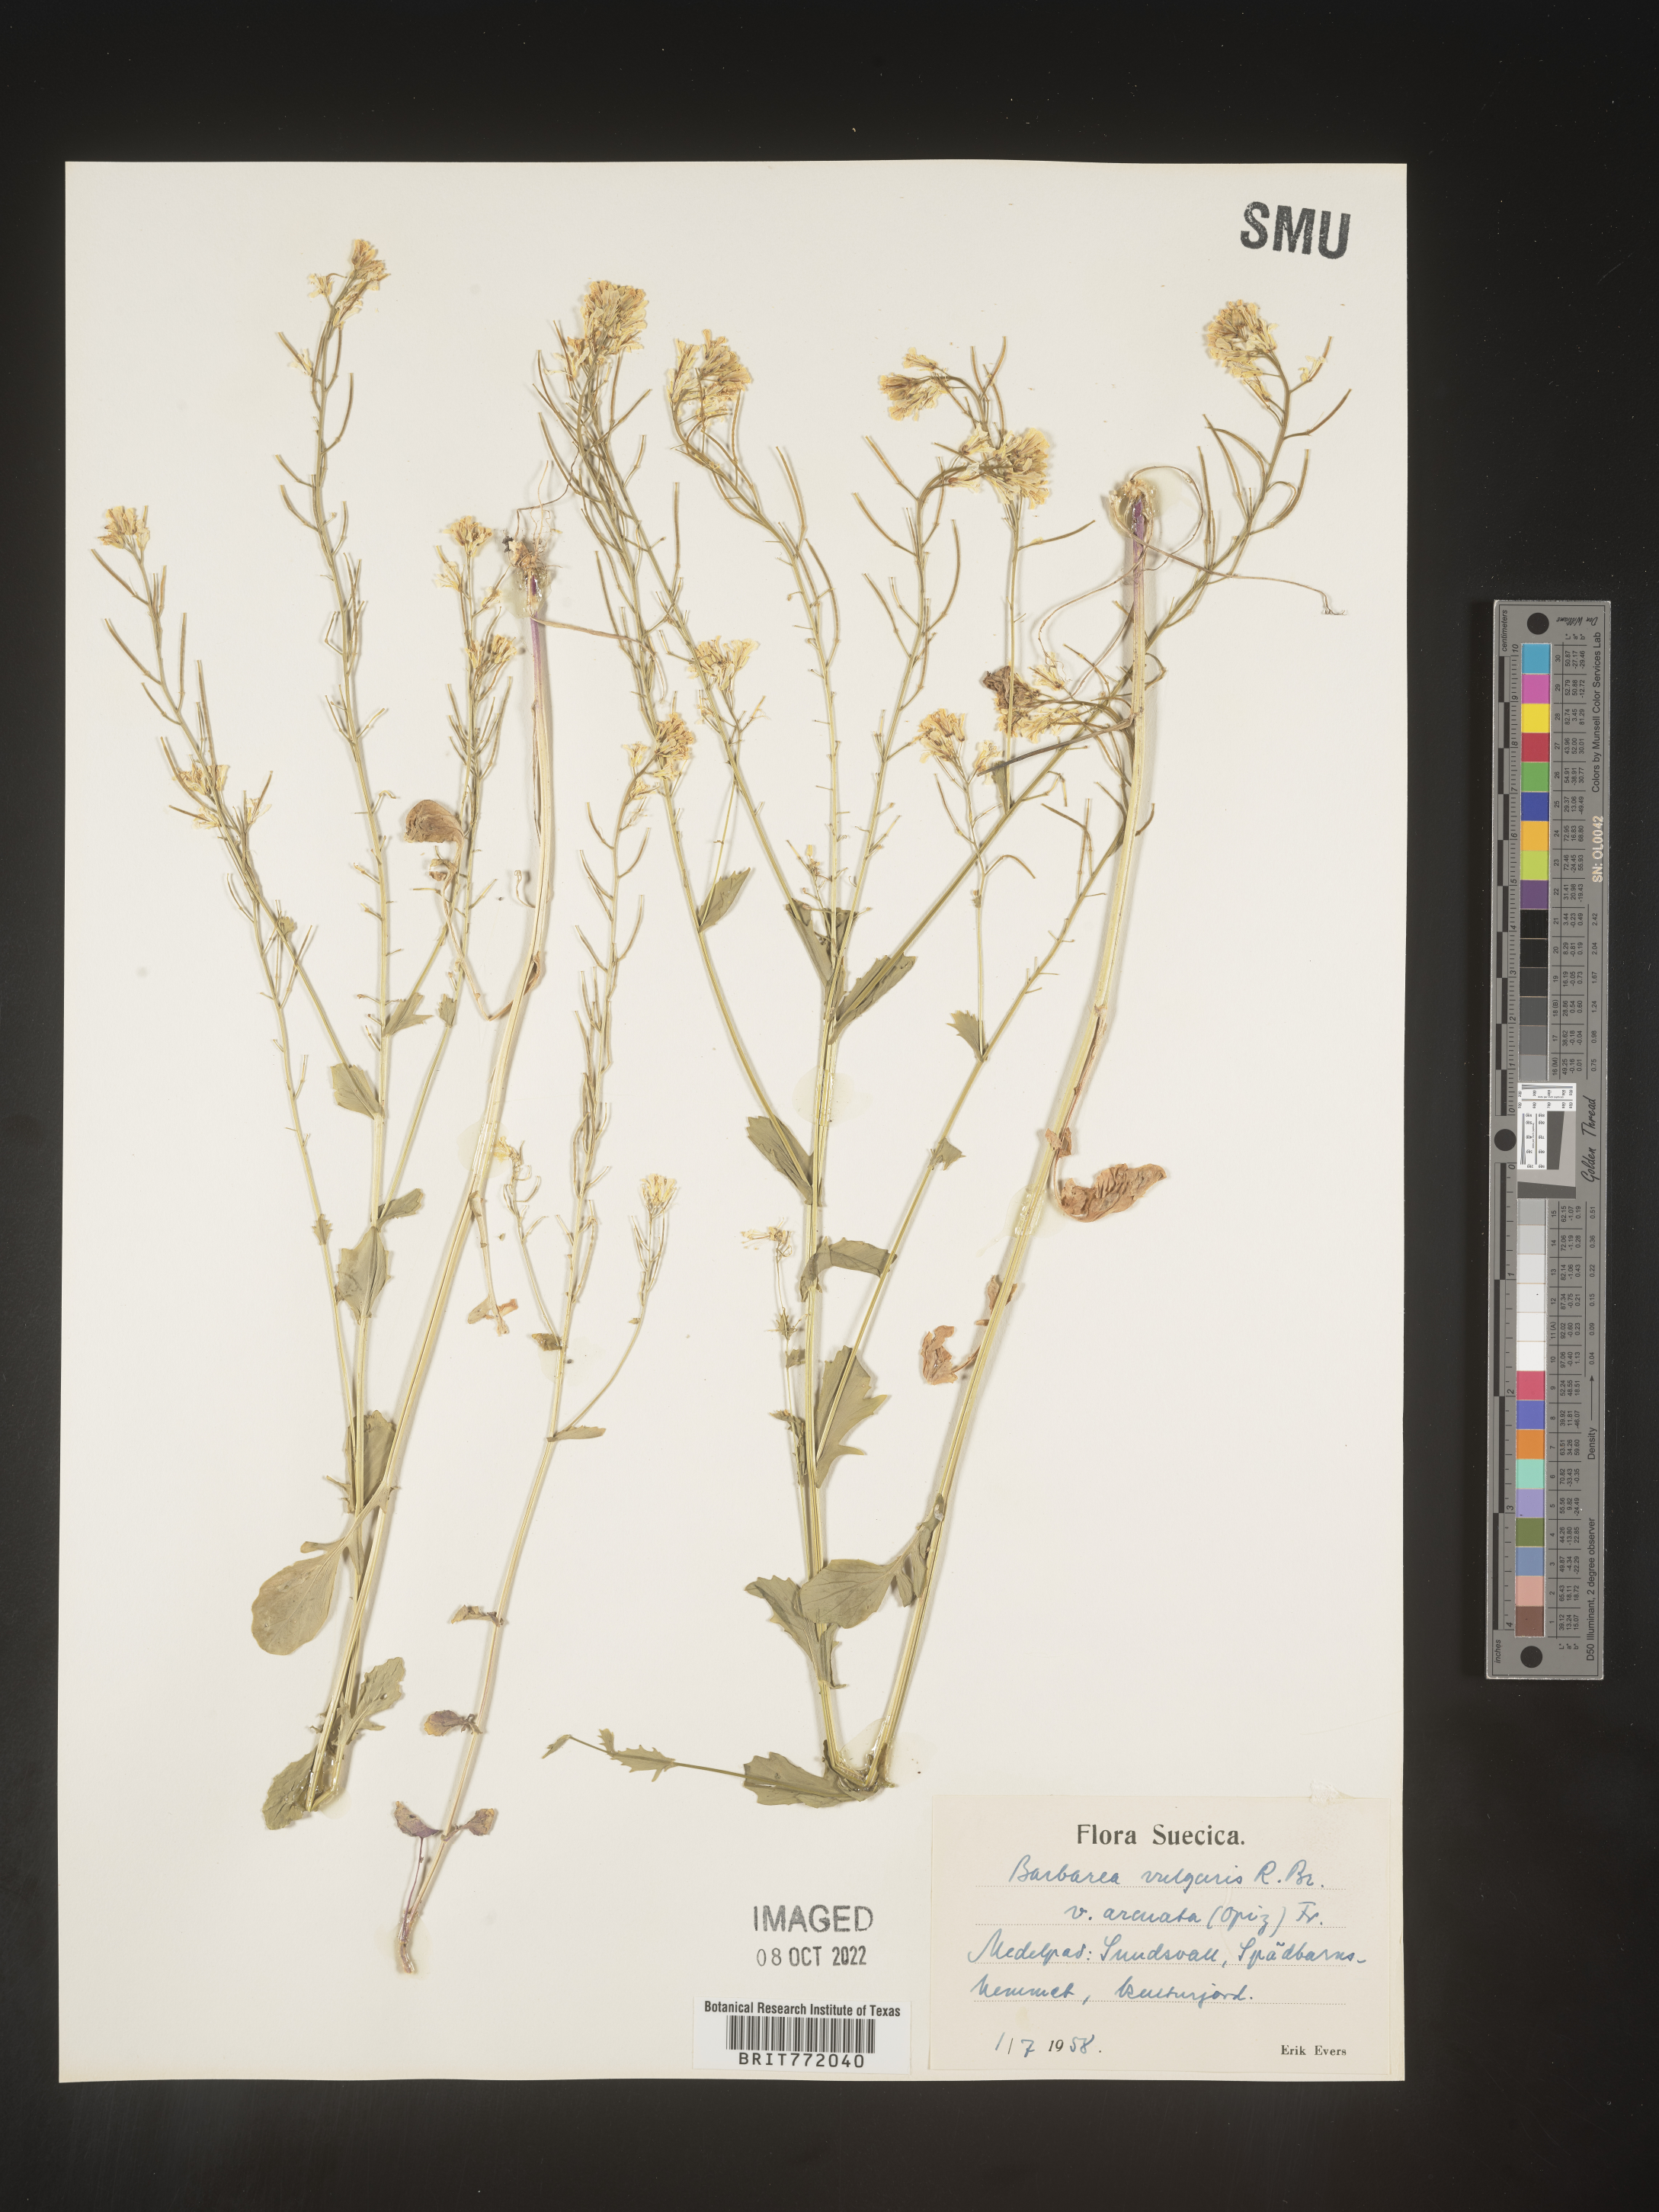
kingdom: Plantae
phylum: Tracheophyta
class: Magnoliopsida
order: Brassicales
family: Brassicaceae
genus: Barbarea
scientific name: Barbarea
